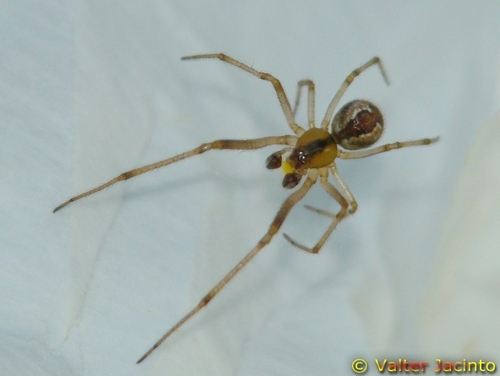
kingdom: Animalia
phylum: Arthropoda
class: Arachnida
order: Araneae
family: Theridiidae
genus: Anelosimus
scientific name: Anelosimus vittatus
